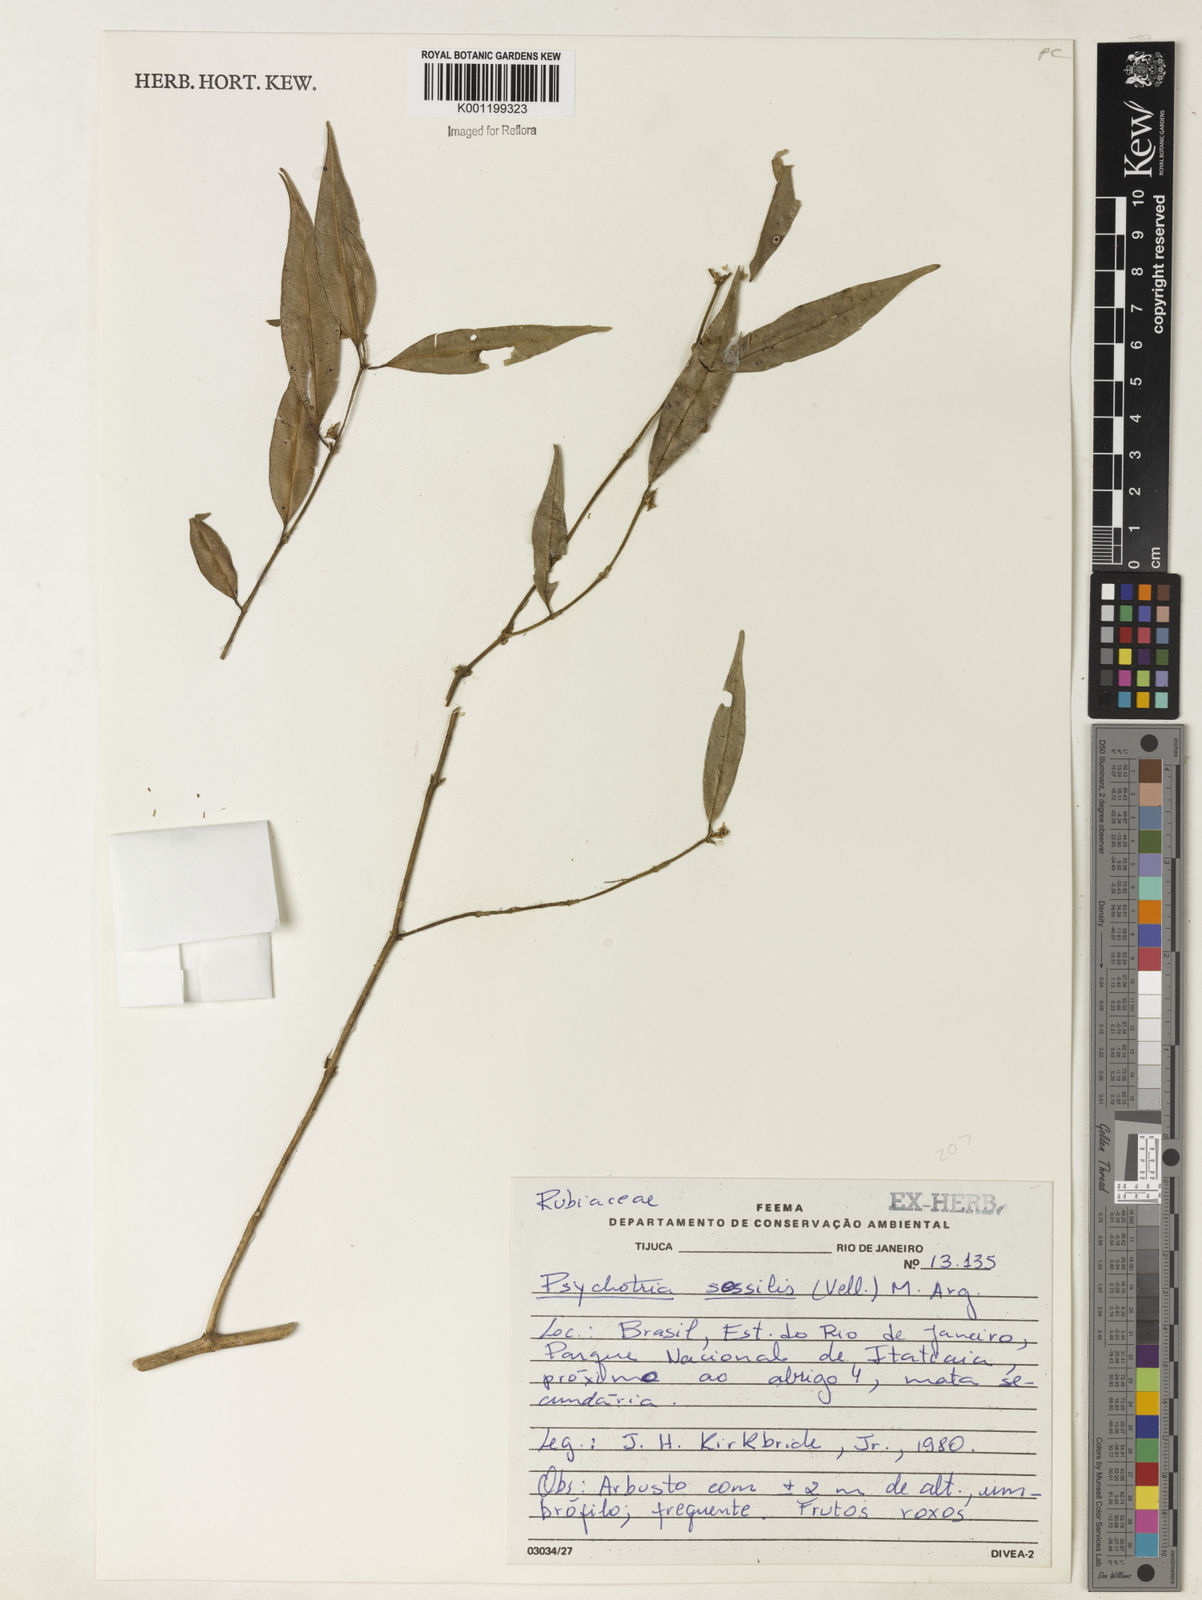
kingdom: Plantae
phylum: Tracheophyta
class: Magnoliopsida
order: Gentianales
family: Rubiaceae
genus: Rudgea
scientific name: Rudgea sessilis
